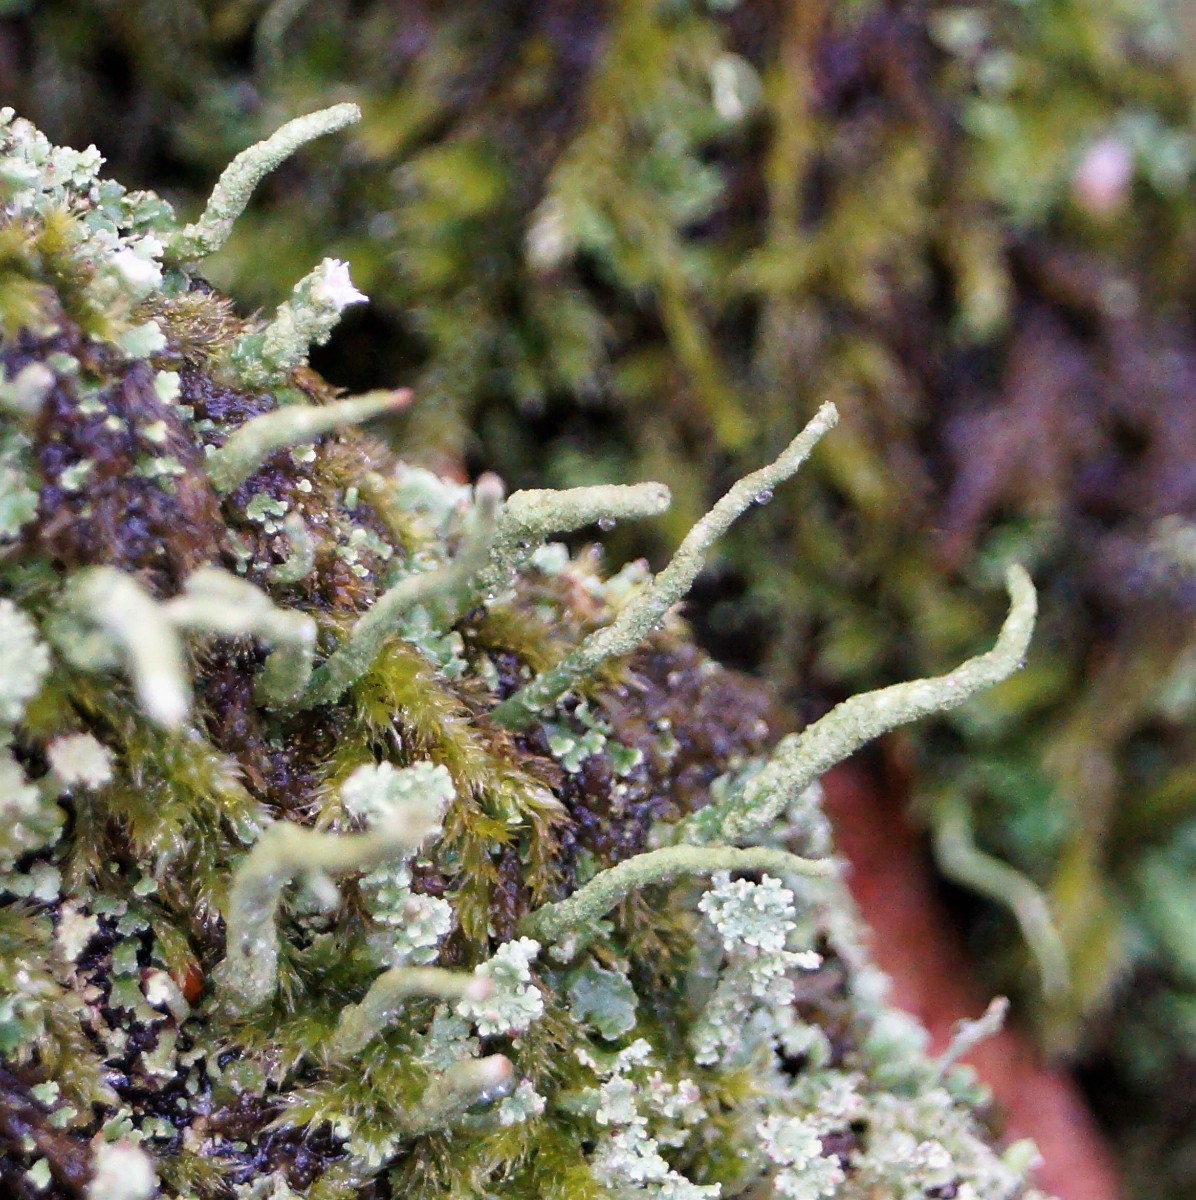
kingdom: Fungi
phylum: Ascomycota
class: Lecanoromycetes
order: Lecanorales
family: Cladoniaceae
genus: Cladonia
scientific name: Cladonia coniocraea
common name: træfods-bægerlav
